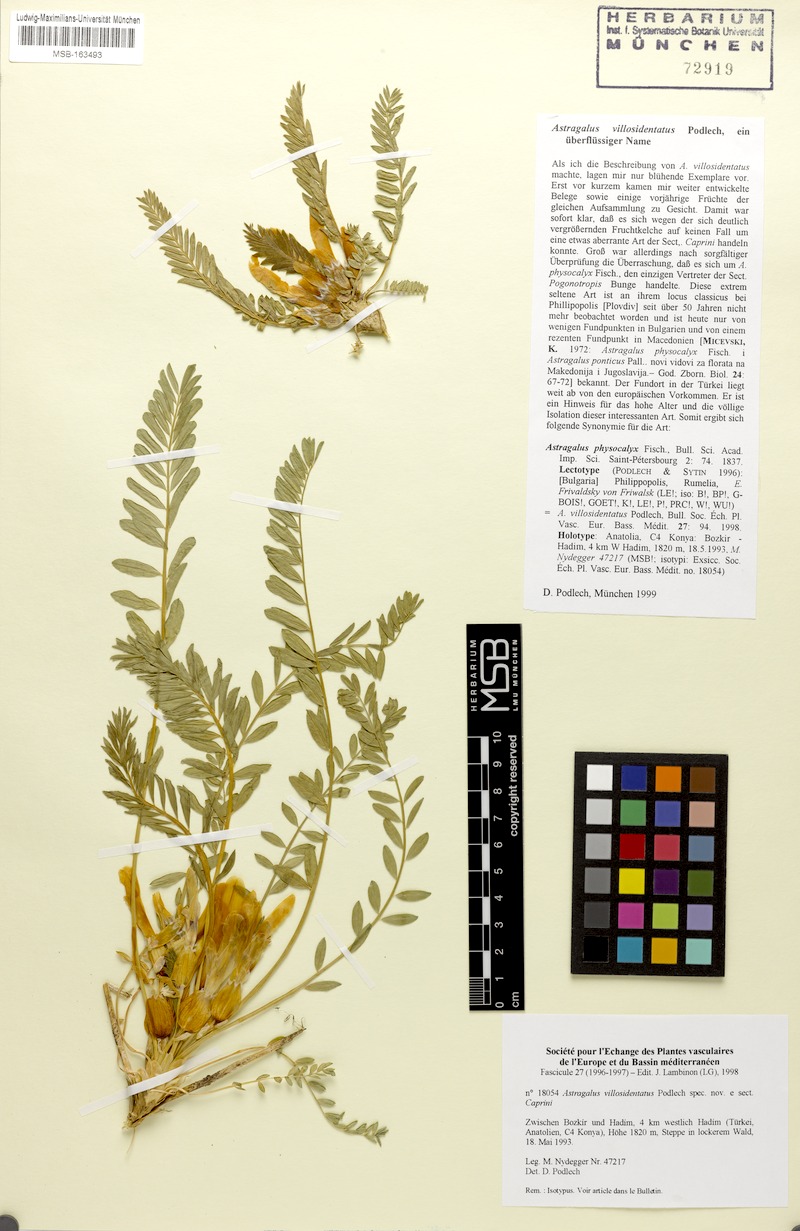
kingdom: Plantae
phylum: Tracheophyta
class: Magnoliopsida
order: Fabales
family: Fabaceae
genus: Astragalus
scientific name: Astragalus physocalyx
